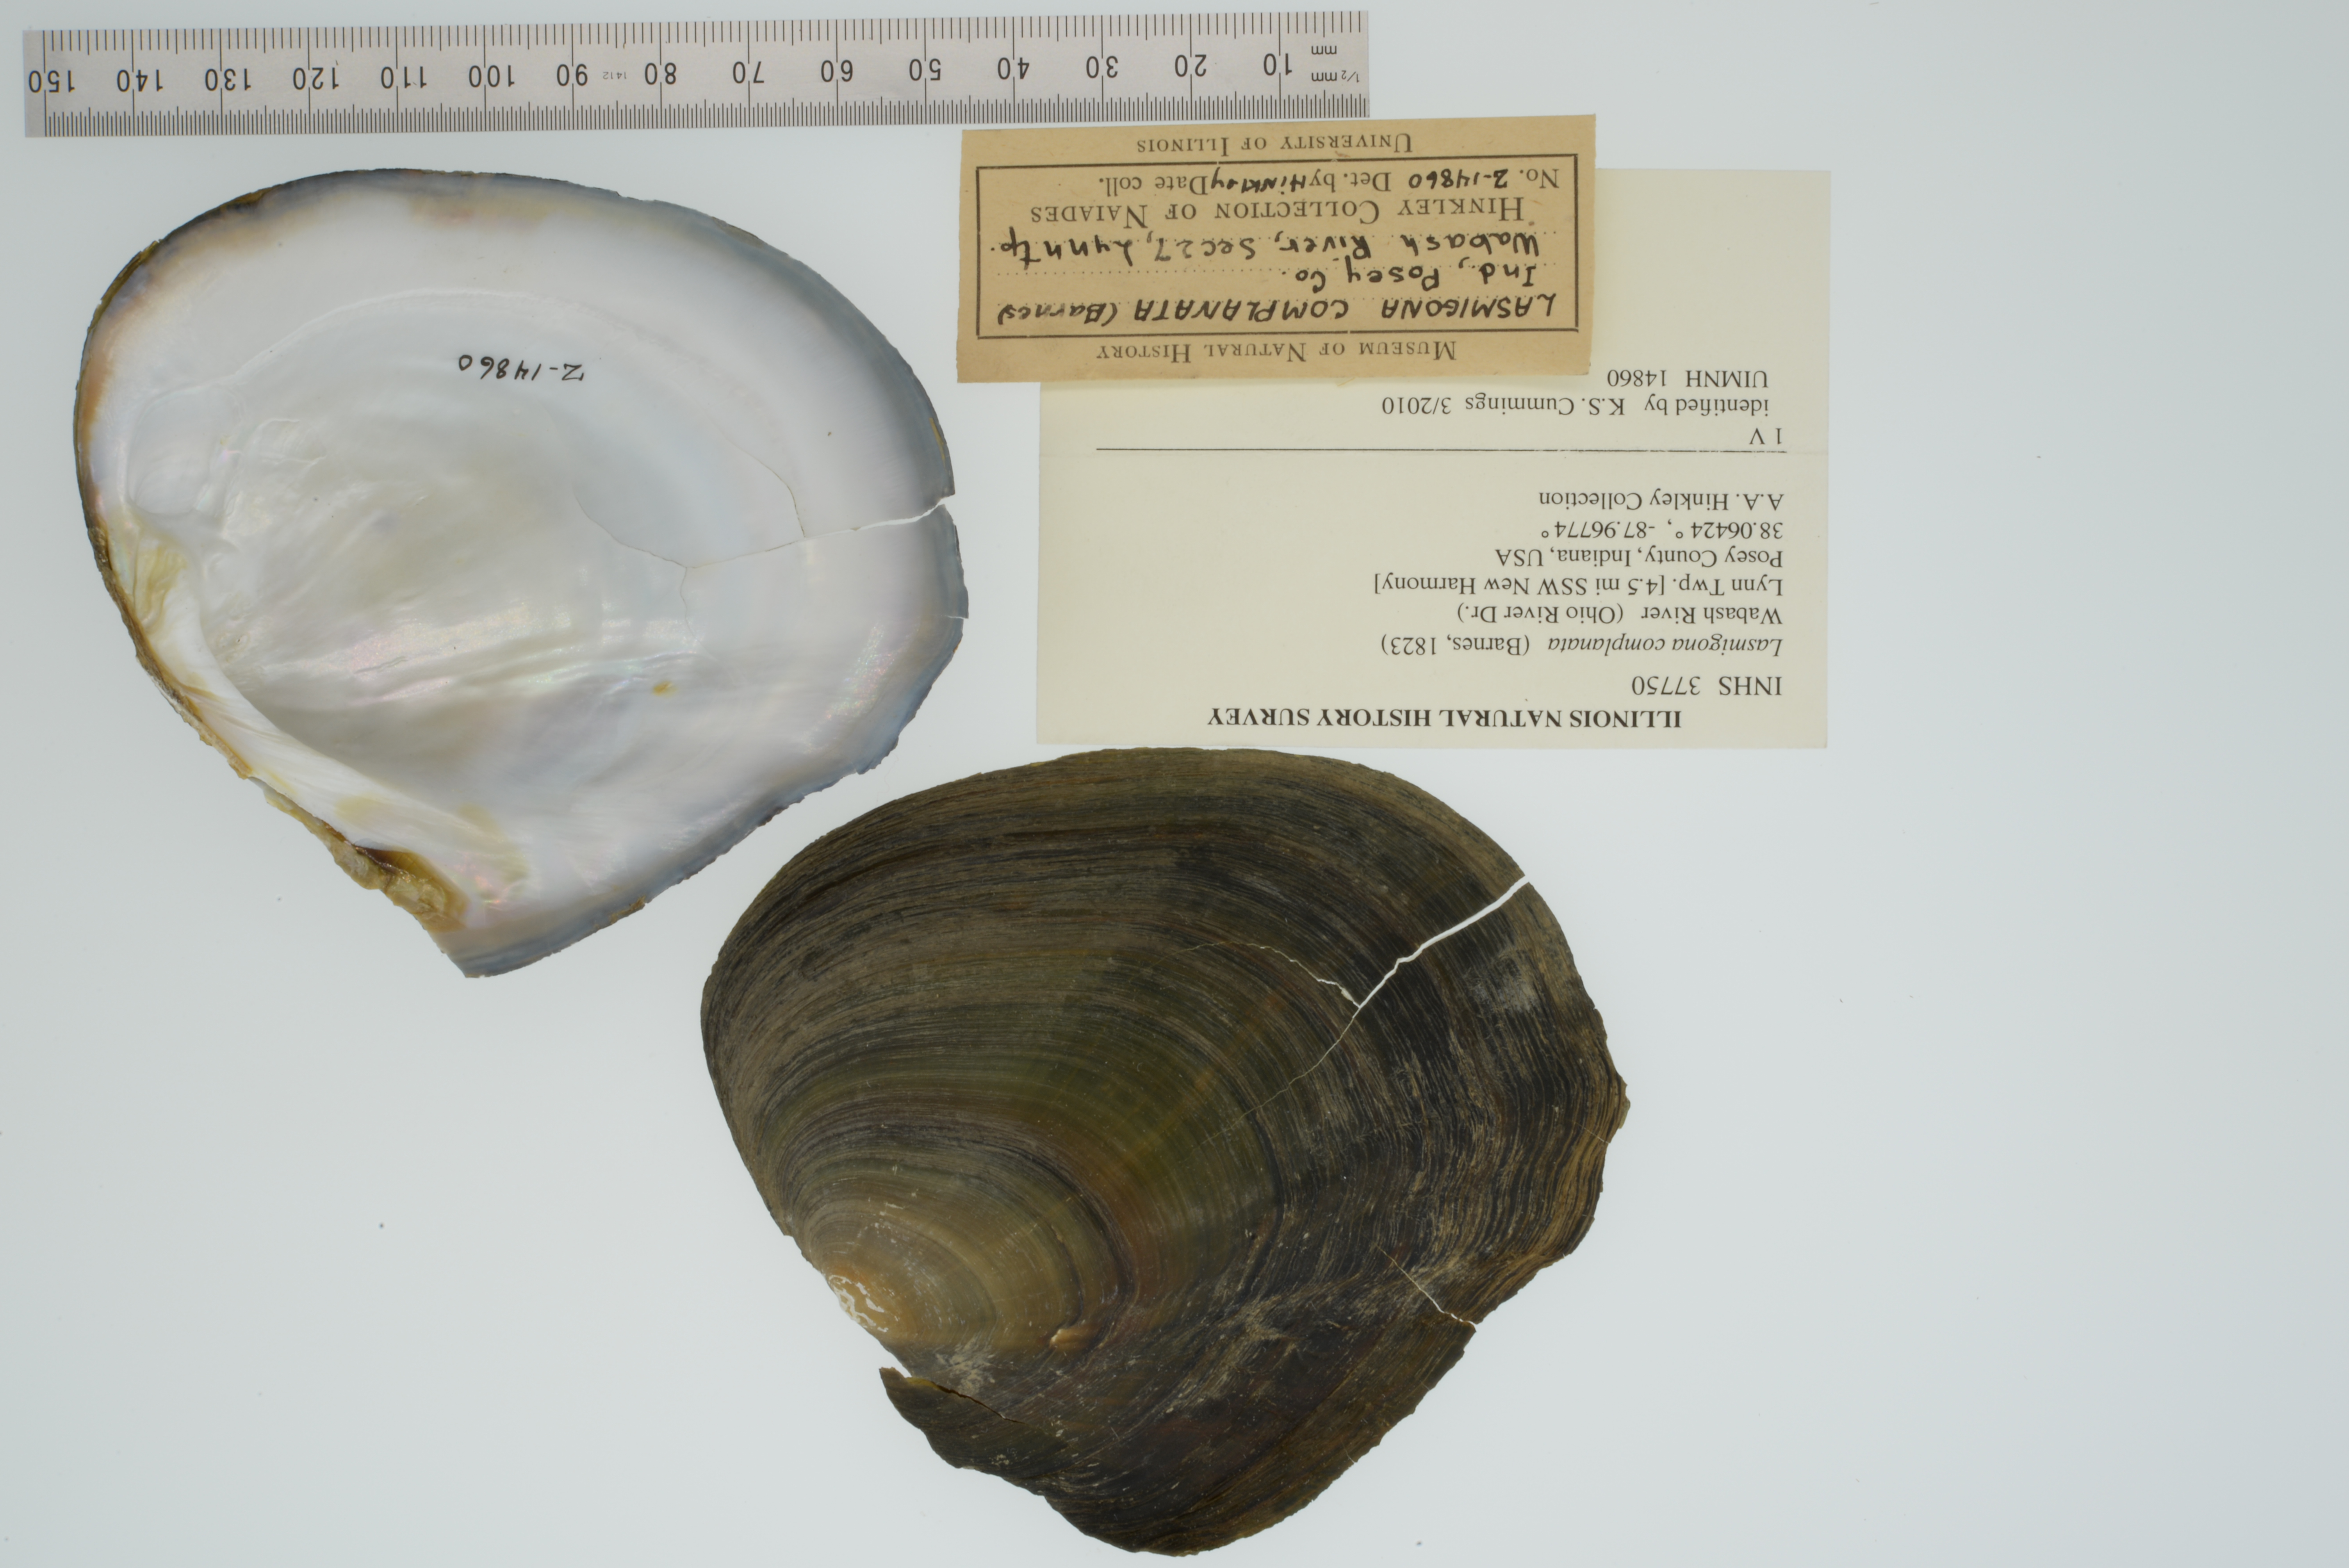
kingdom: Animalia
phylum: Mollusca
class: Bivalvia
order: Unionida
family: Unionidae
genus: Lasmigona
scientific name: Lasmigona complanata
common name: White heelsplitter
